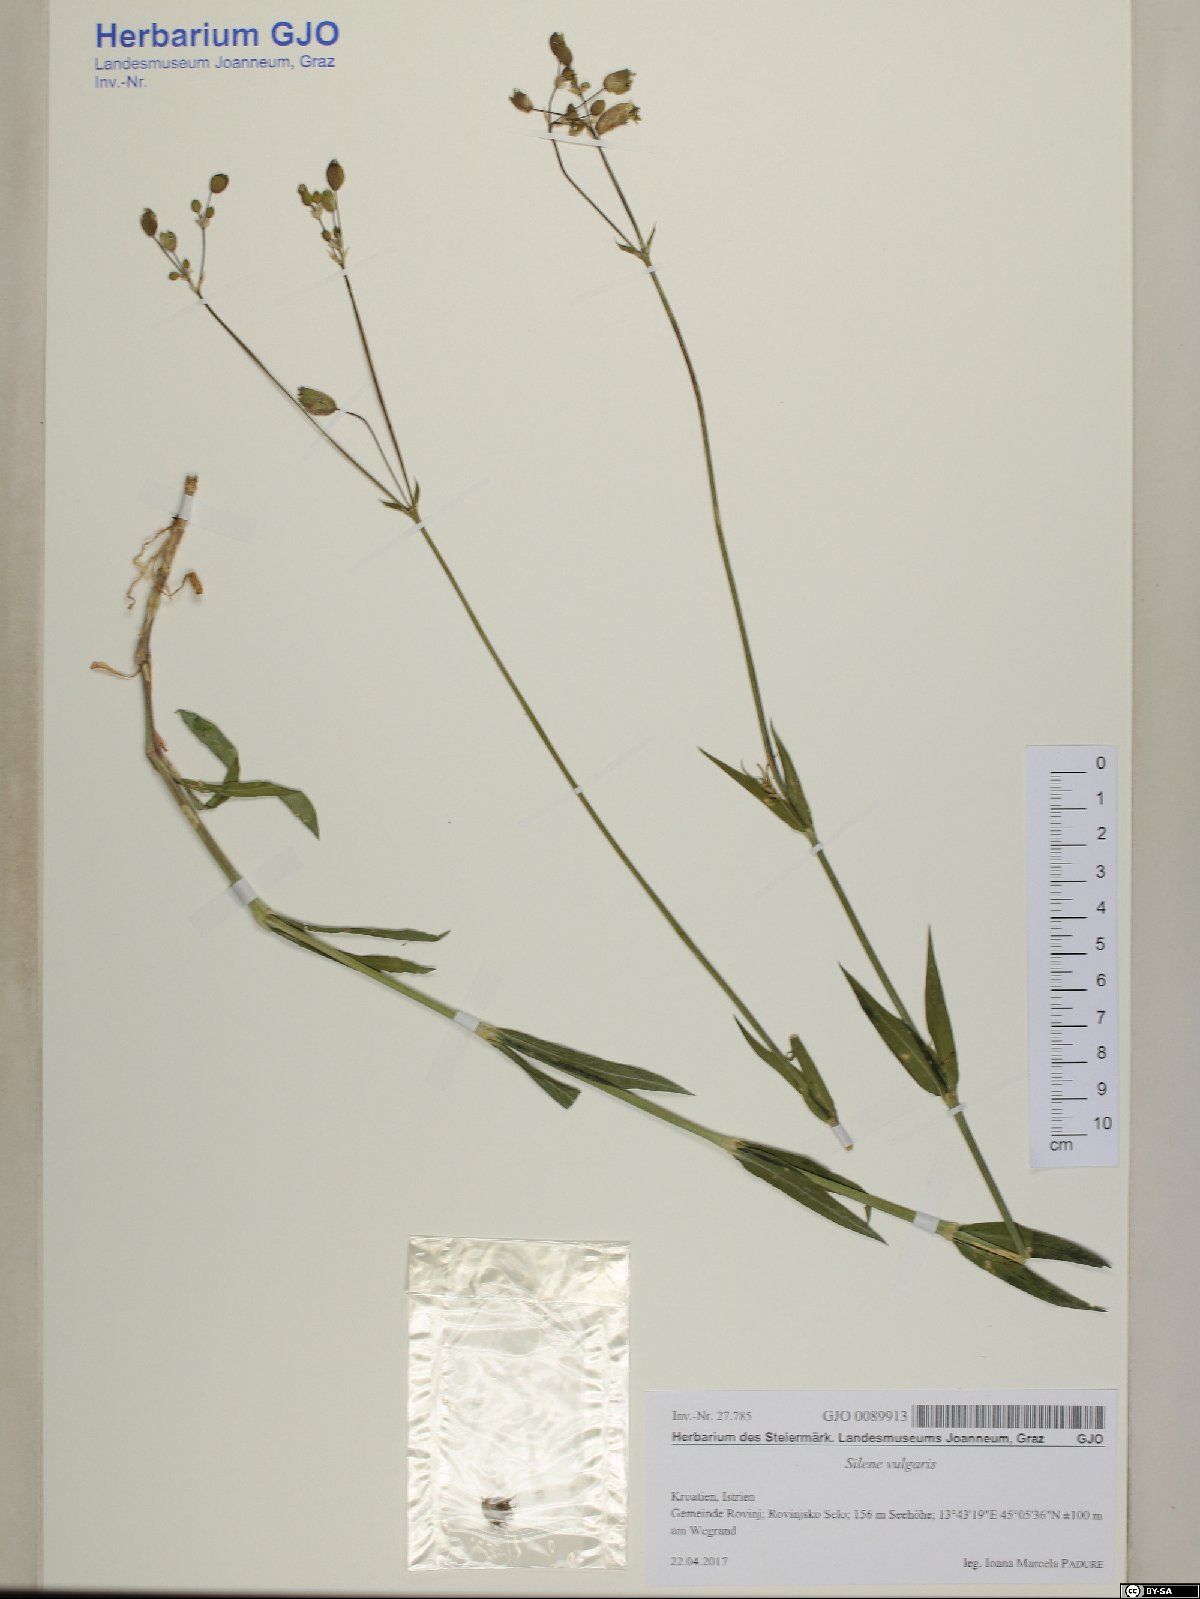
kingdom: Plantae
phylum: Tracheophyta
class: Magnoliopsida
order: Caryophyllales
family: Caryophyllaceae
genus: Silene
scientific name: Silene vulgaris
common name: Bladder campion
